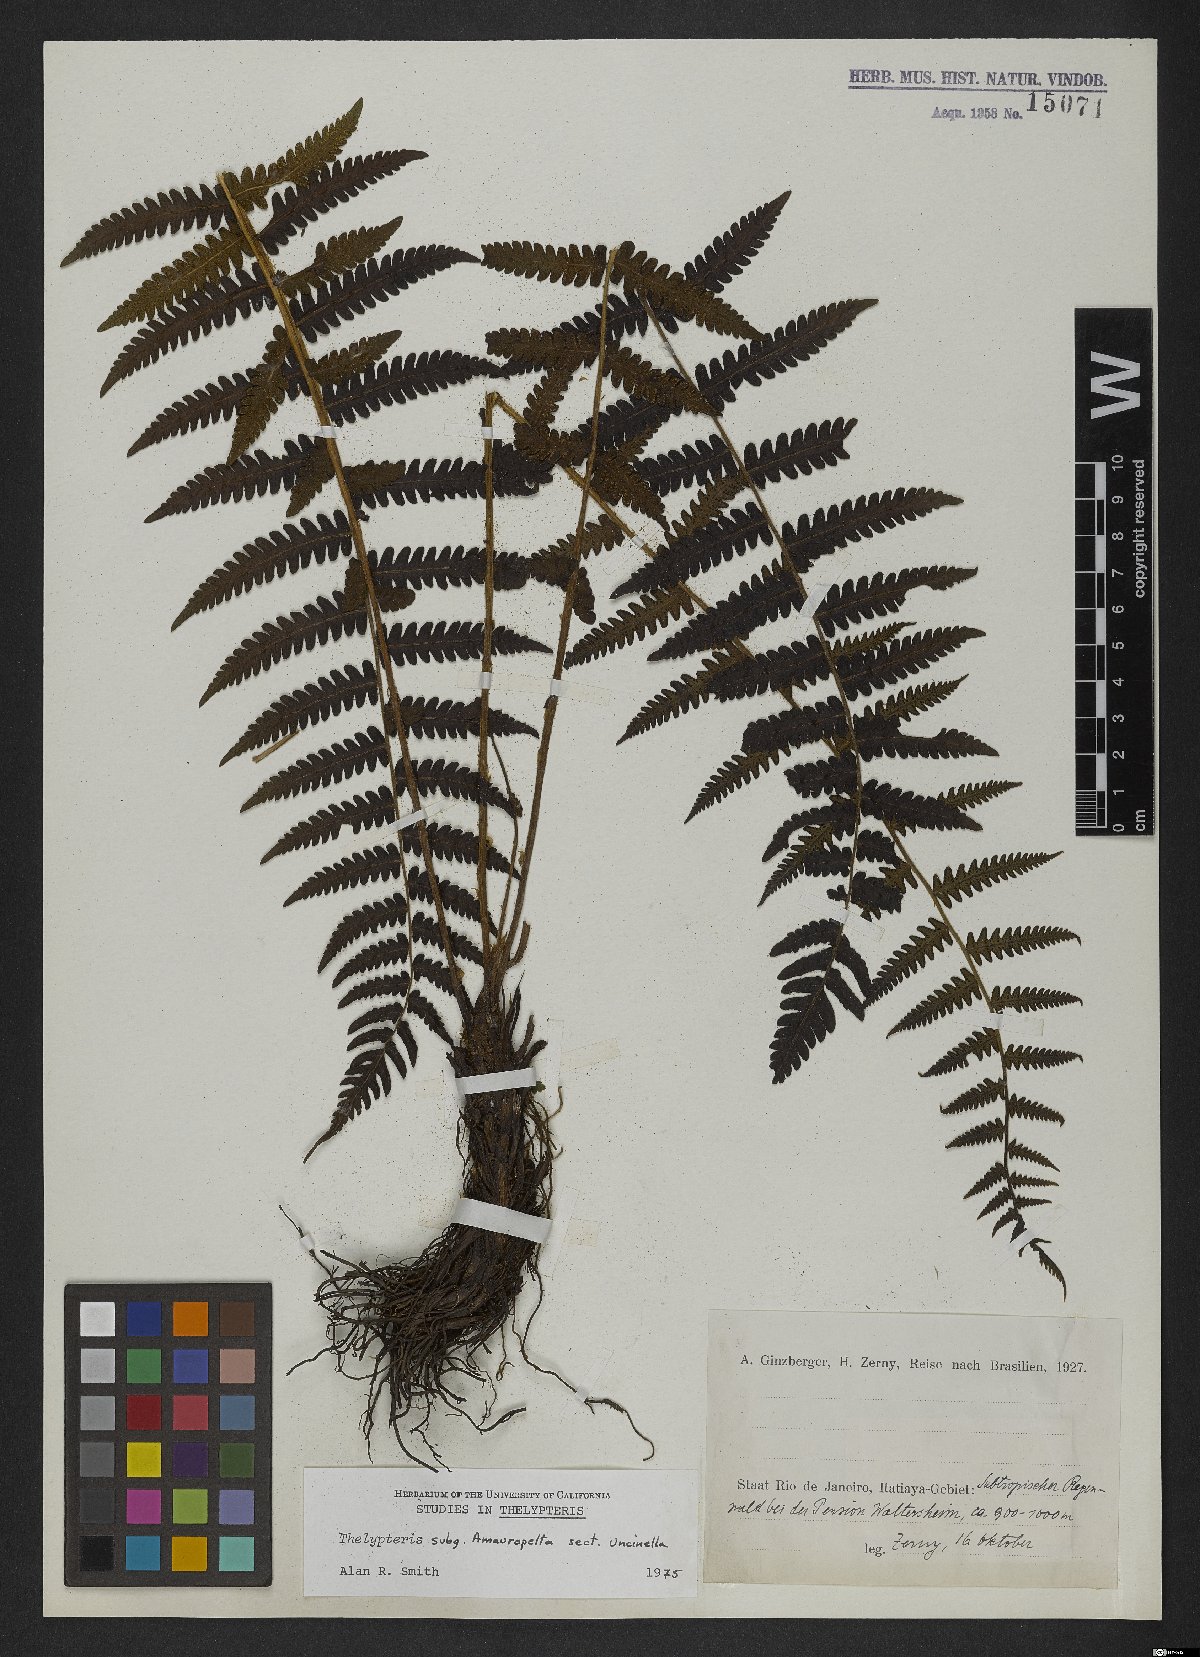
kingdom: Plantae
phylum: Tracheophyta
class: Polypodiopsida
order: Polypodiales
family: Thelypteridaceae
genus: Thelypteris
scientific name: Thelypteris
